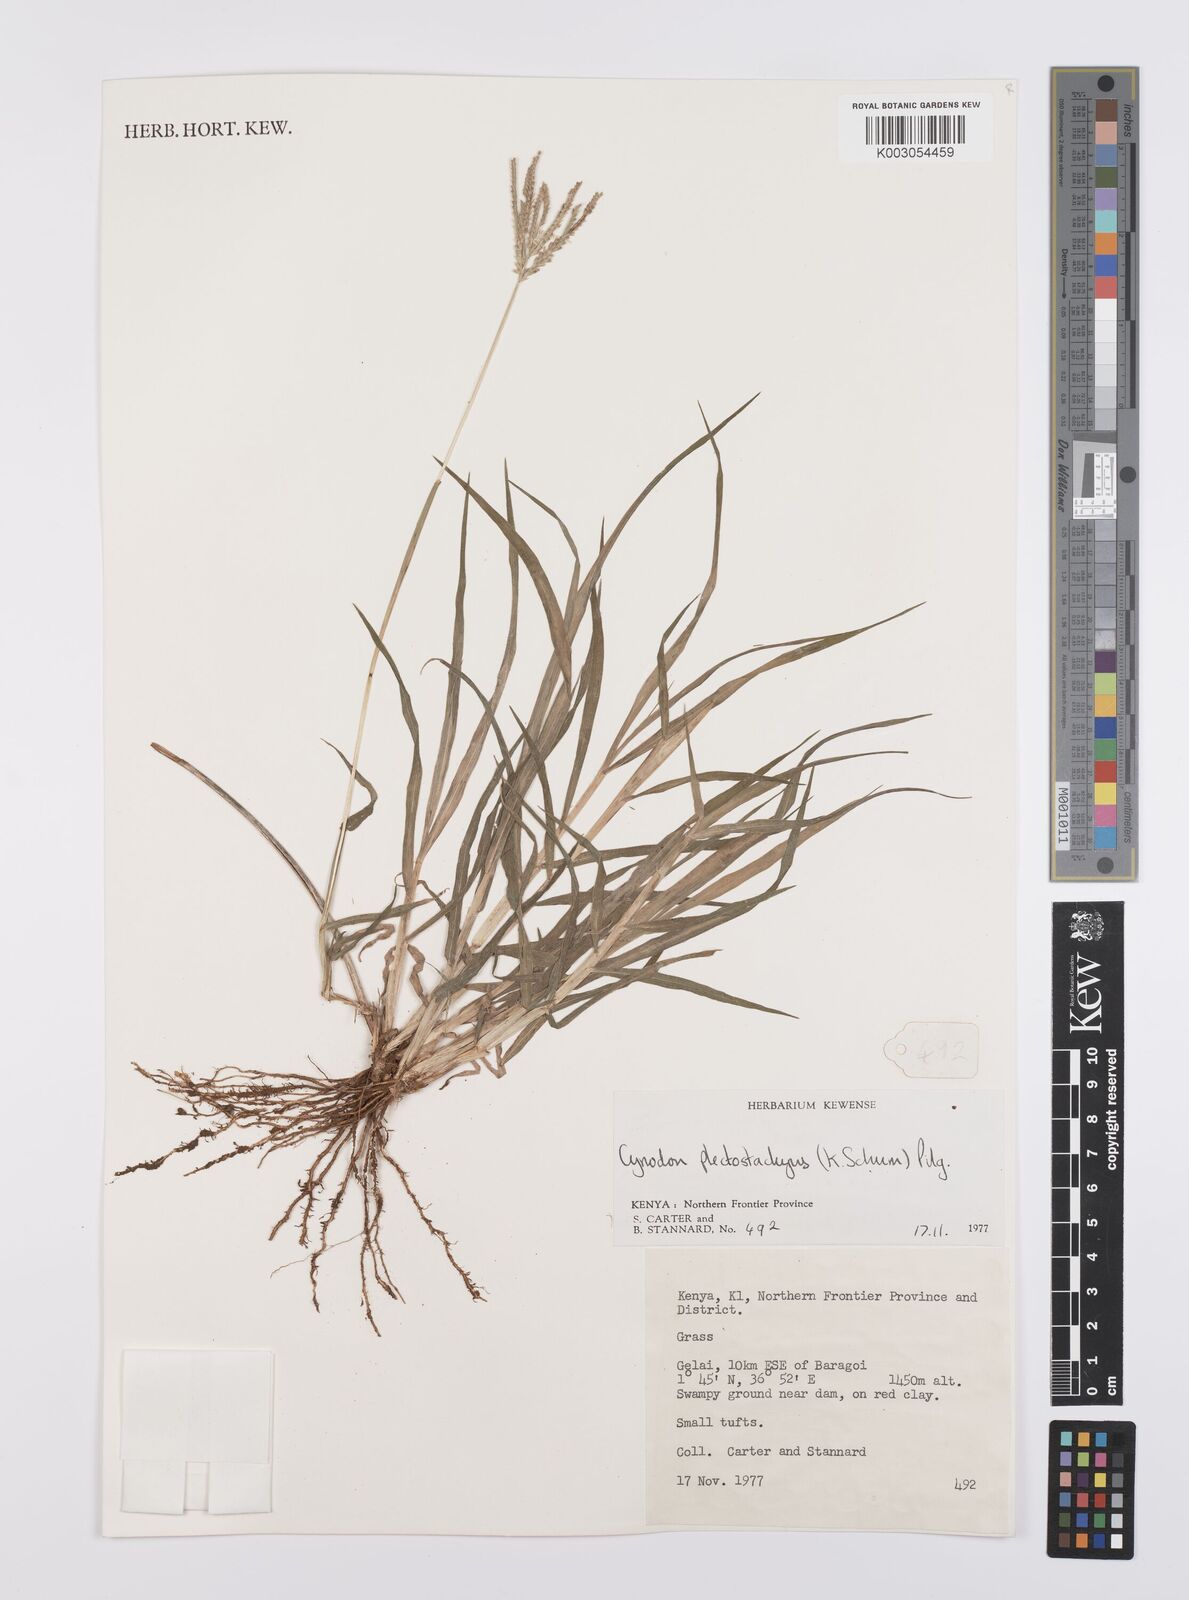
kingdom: Plantae
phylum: Tracheophyta
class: Liliopsida
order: Poales
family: Poaceae
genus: Cynodon
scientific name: Cynodon plectostachyus
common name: Stargrass
